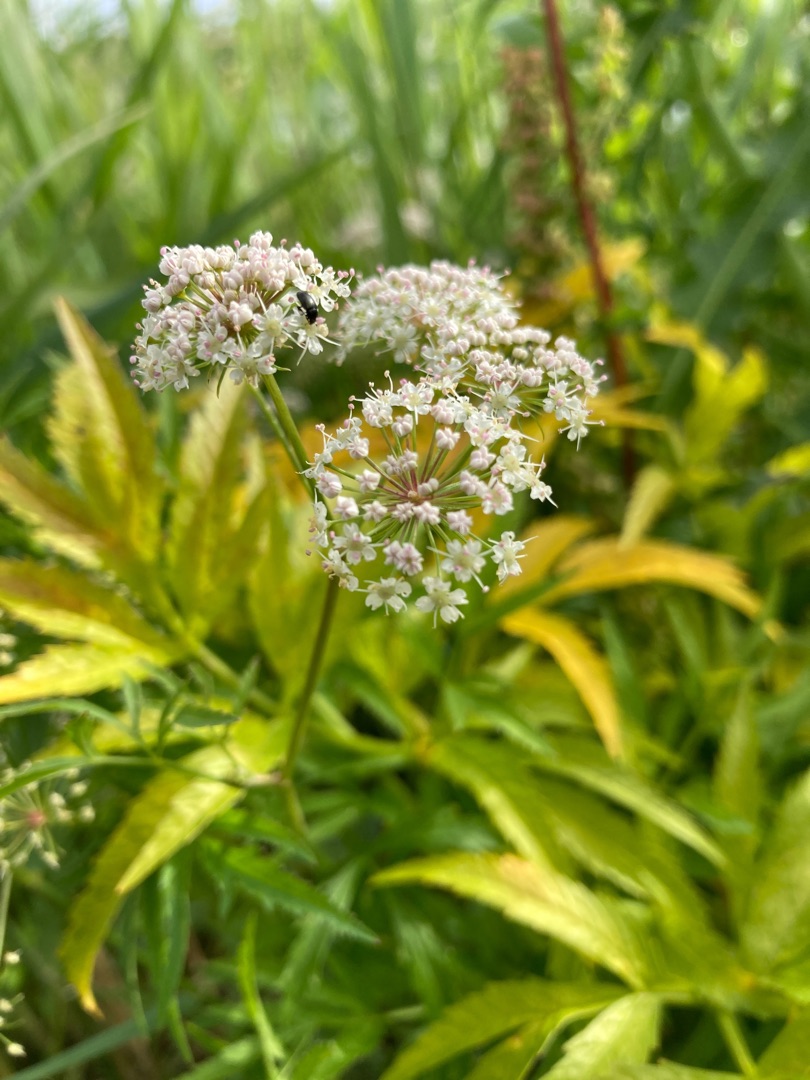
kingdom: Plantae
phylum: Tracheophyta
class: Magnoliopsida
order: Apiales
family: Apiaceae
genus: Cicuta
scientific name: Cicuta virosa
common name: Gifttyde
